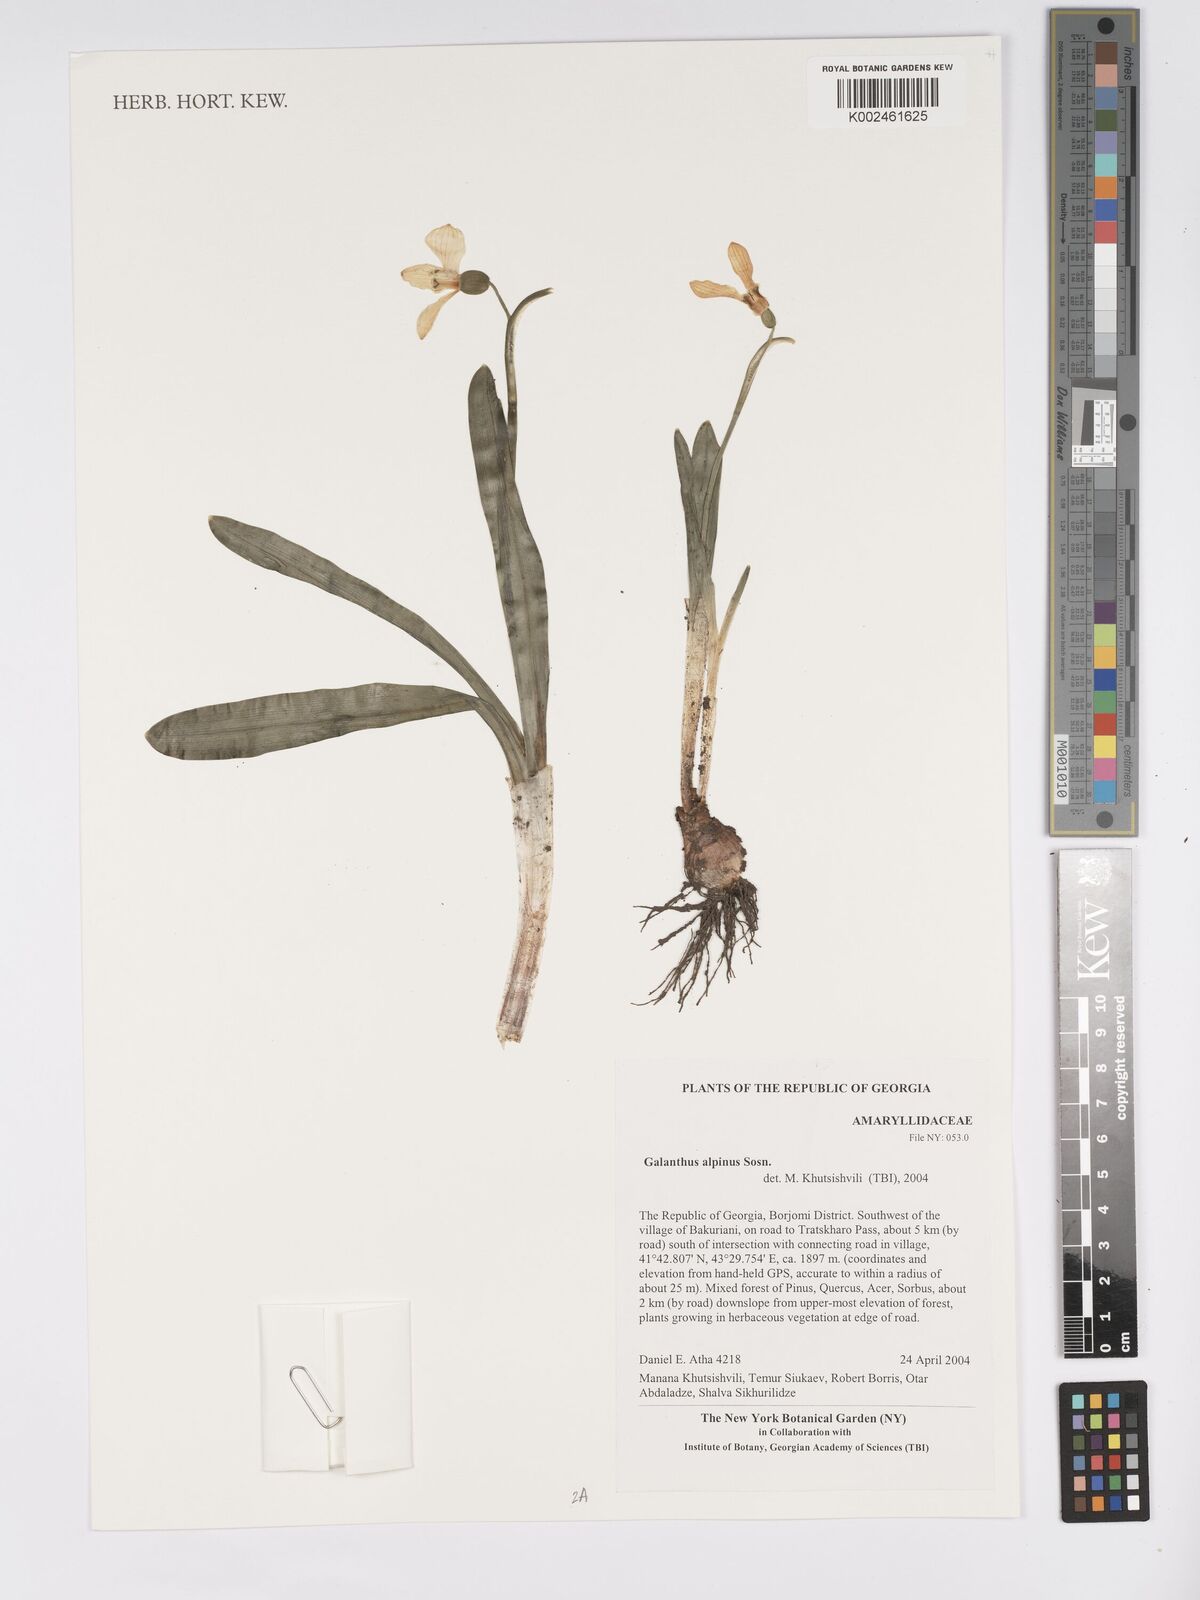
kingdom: Plantae
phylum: Tracheophyta
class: Liliopsida
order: Asparagales
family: Amaryllidaceae
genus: Galanthus
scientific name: Galanthus alpinus
